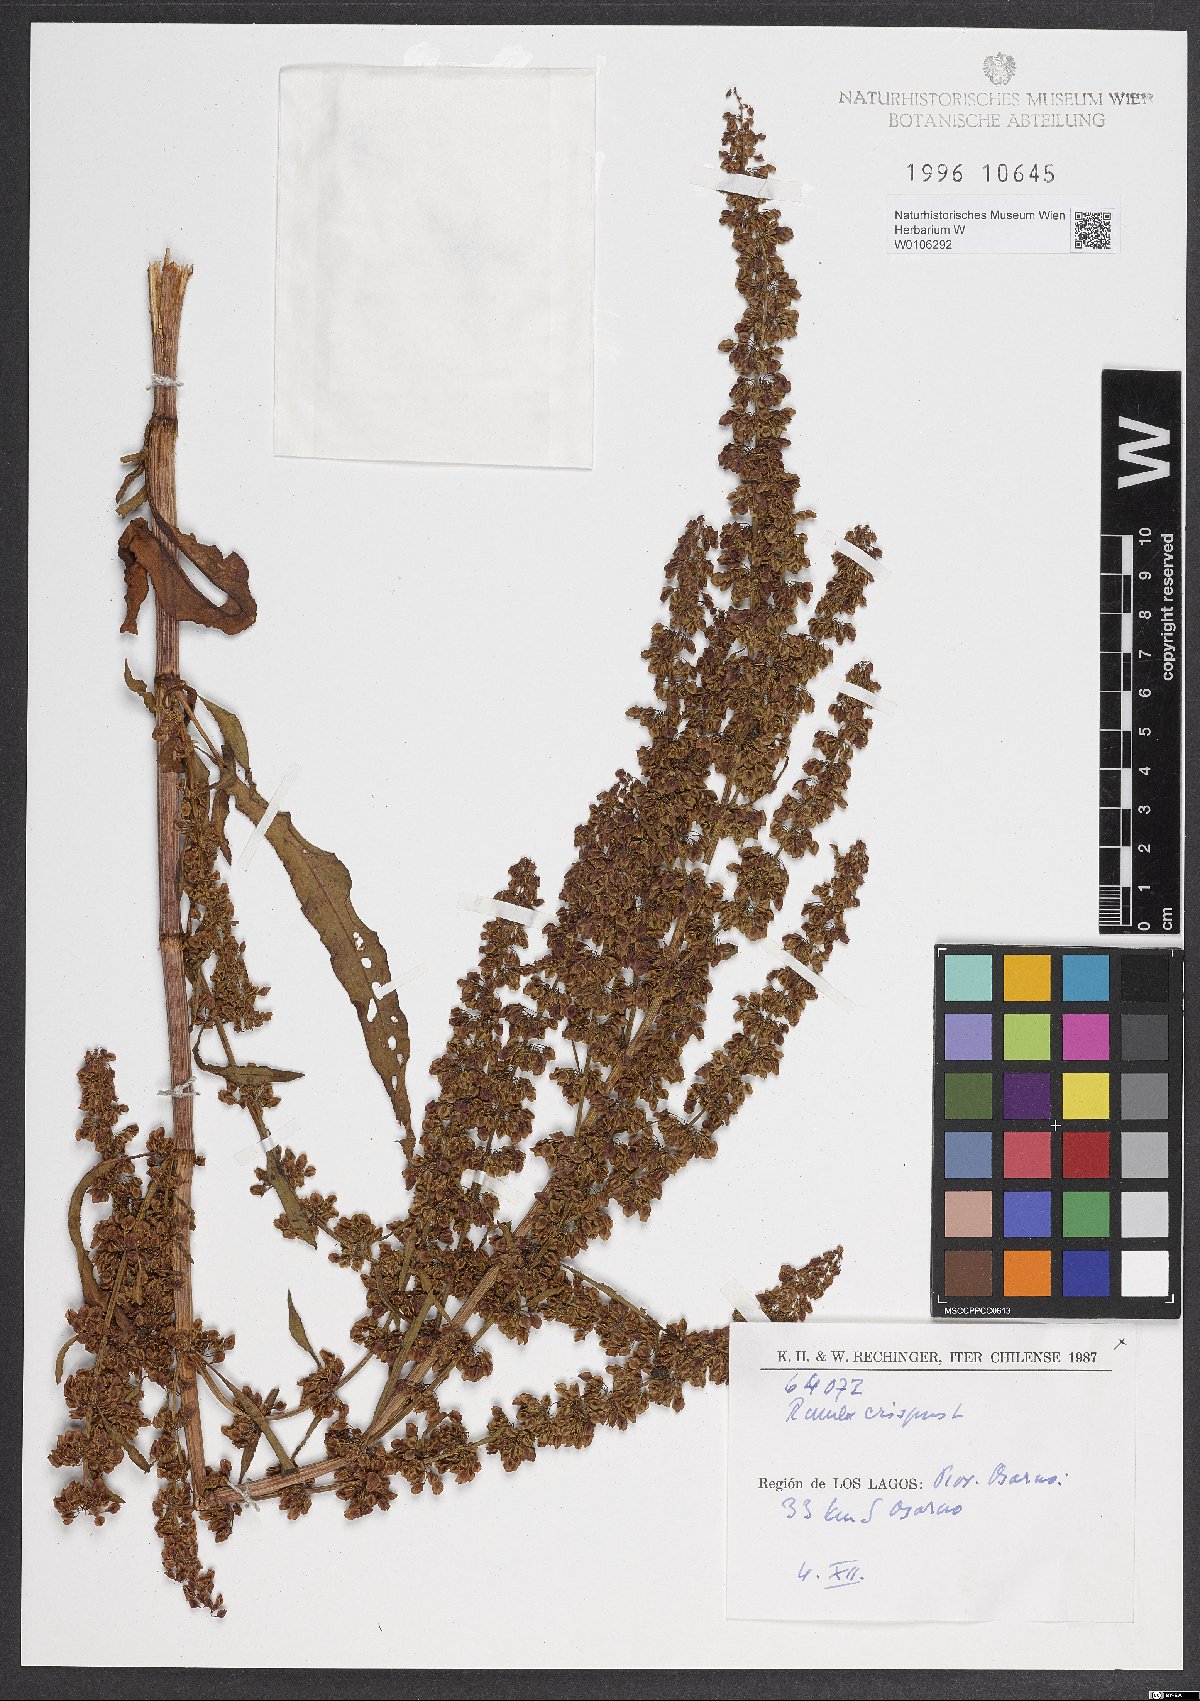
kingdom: Plantae
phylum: Tracheophyta
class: Magnoliopsida
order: Caryophyllales
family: Polygonaceae
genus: Rumex
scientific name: Rumex crispus
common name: Curled dock
